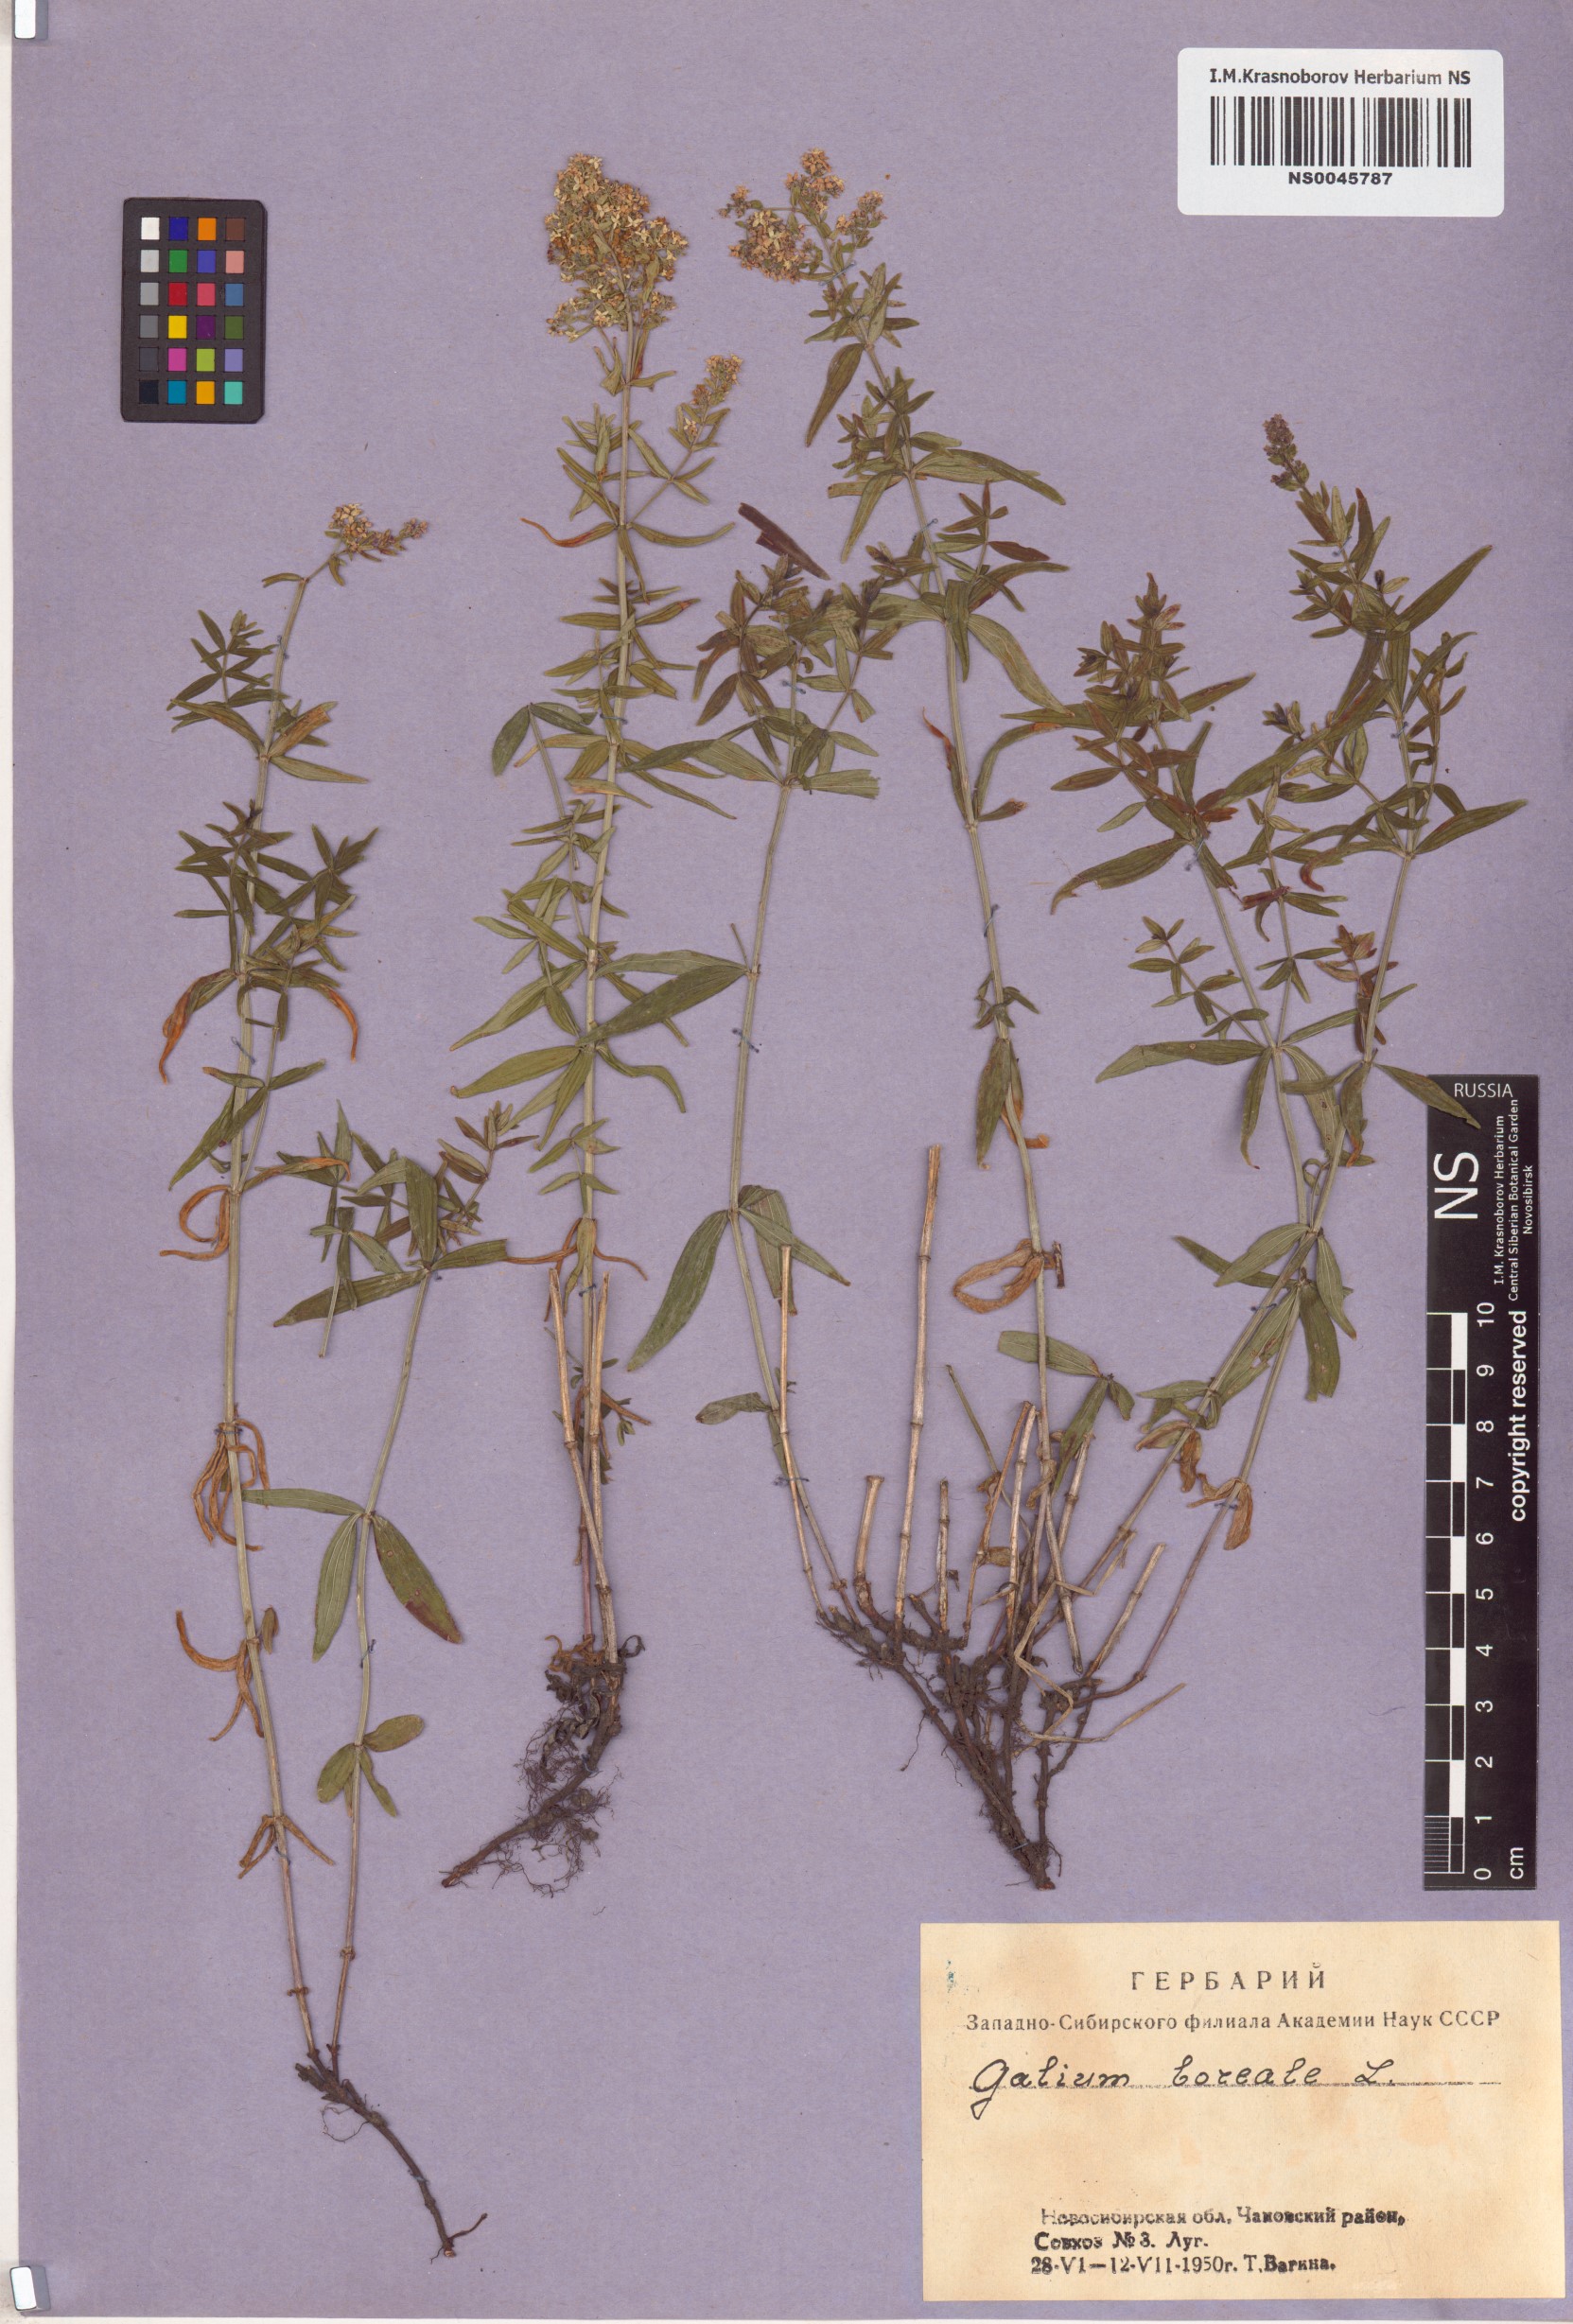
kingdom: Plantae
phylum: Tracheophyta
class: Magnoliopsida
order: Gentianales
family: Rubiaceae
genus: Galium
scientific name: Galium boreale
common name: Northern bedstraw
